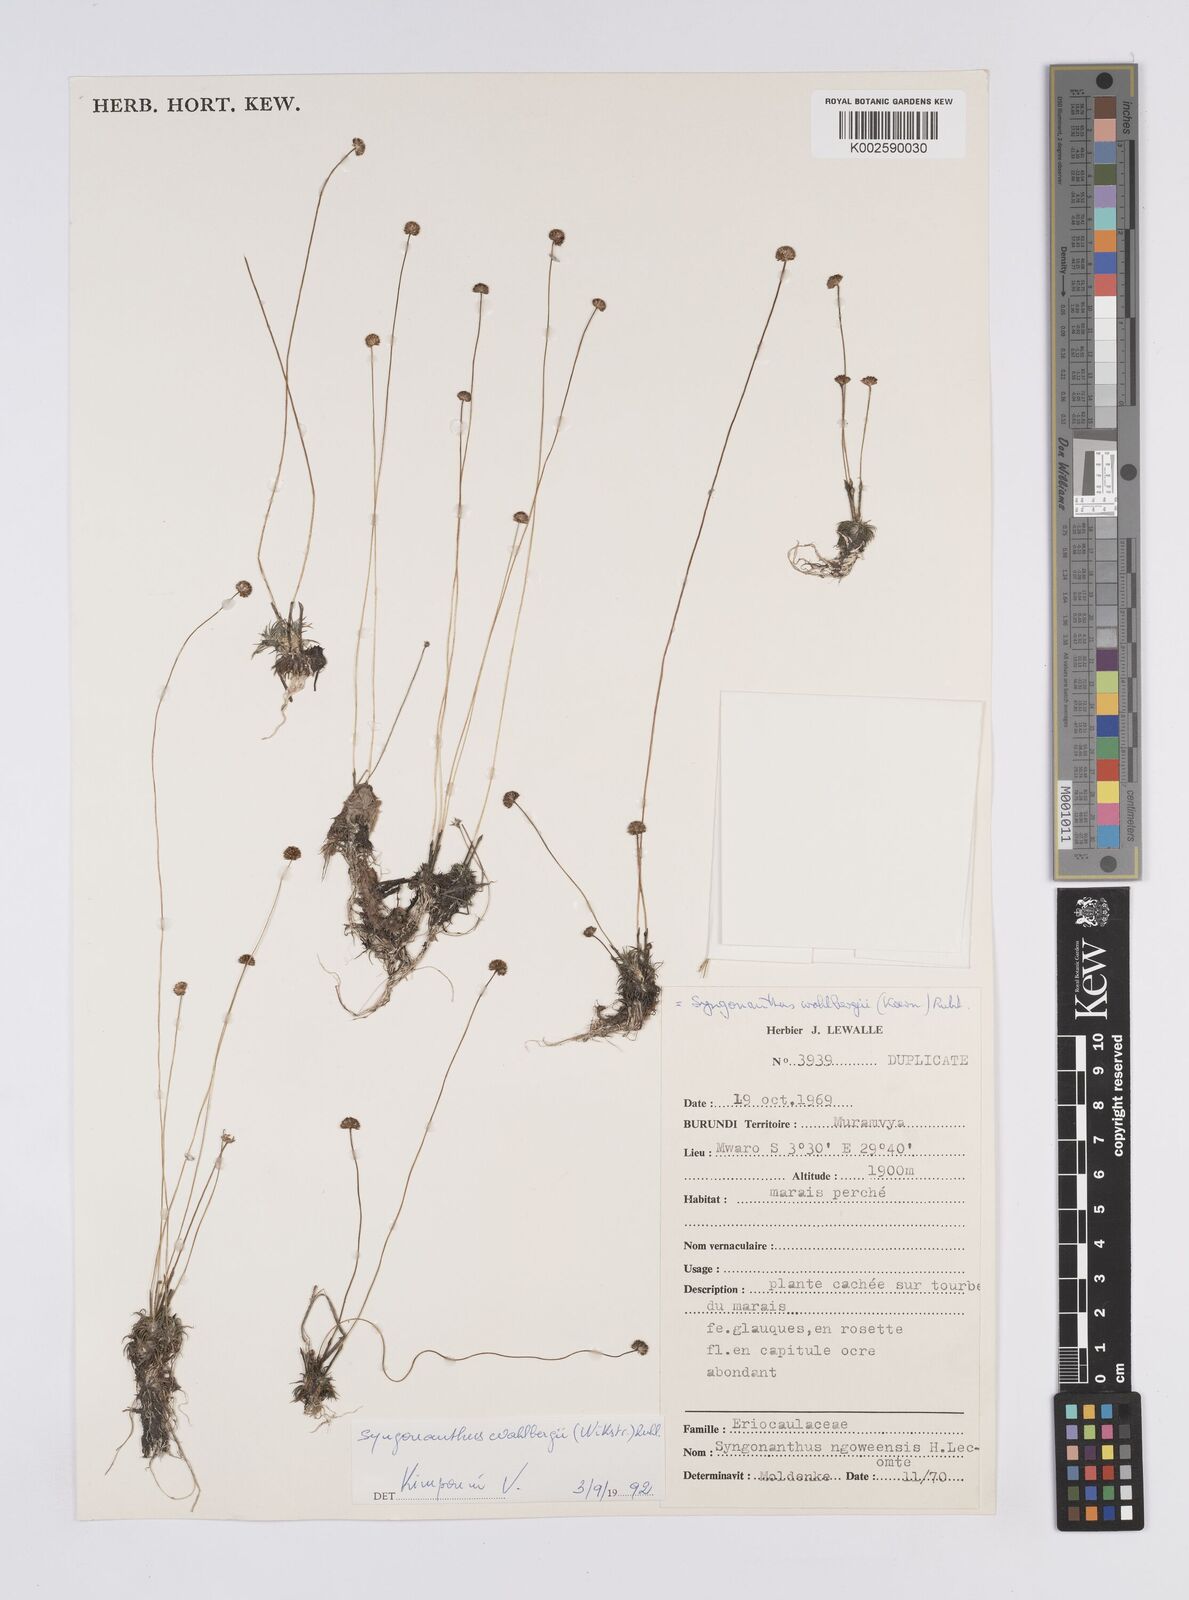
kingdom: Plantae
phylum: Tracheophyta
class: Liliopsida
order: Poales
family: Eriocaulaceae
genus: Syngonanthus
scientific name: Syngonanthus wahlbergii
